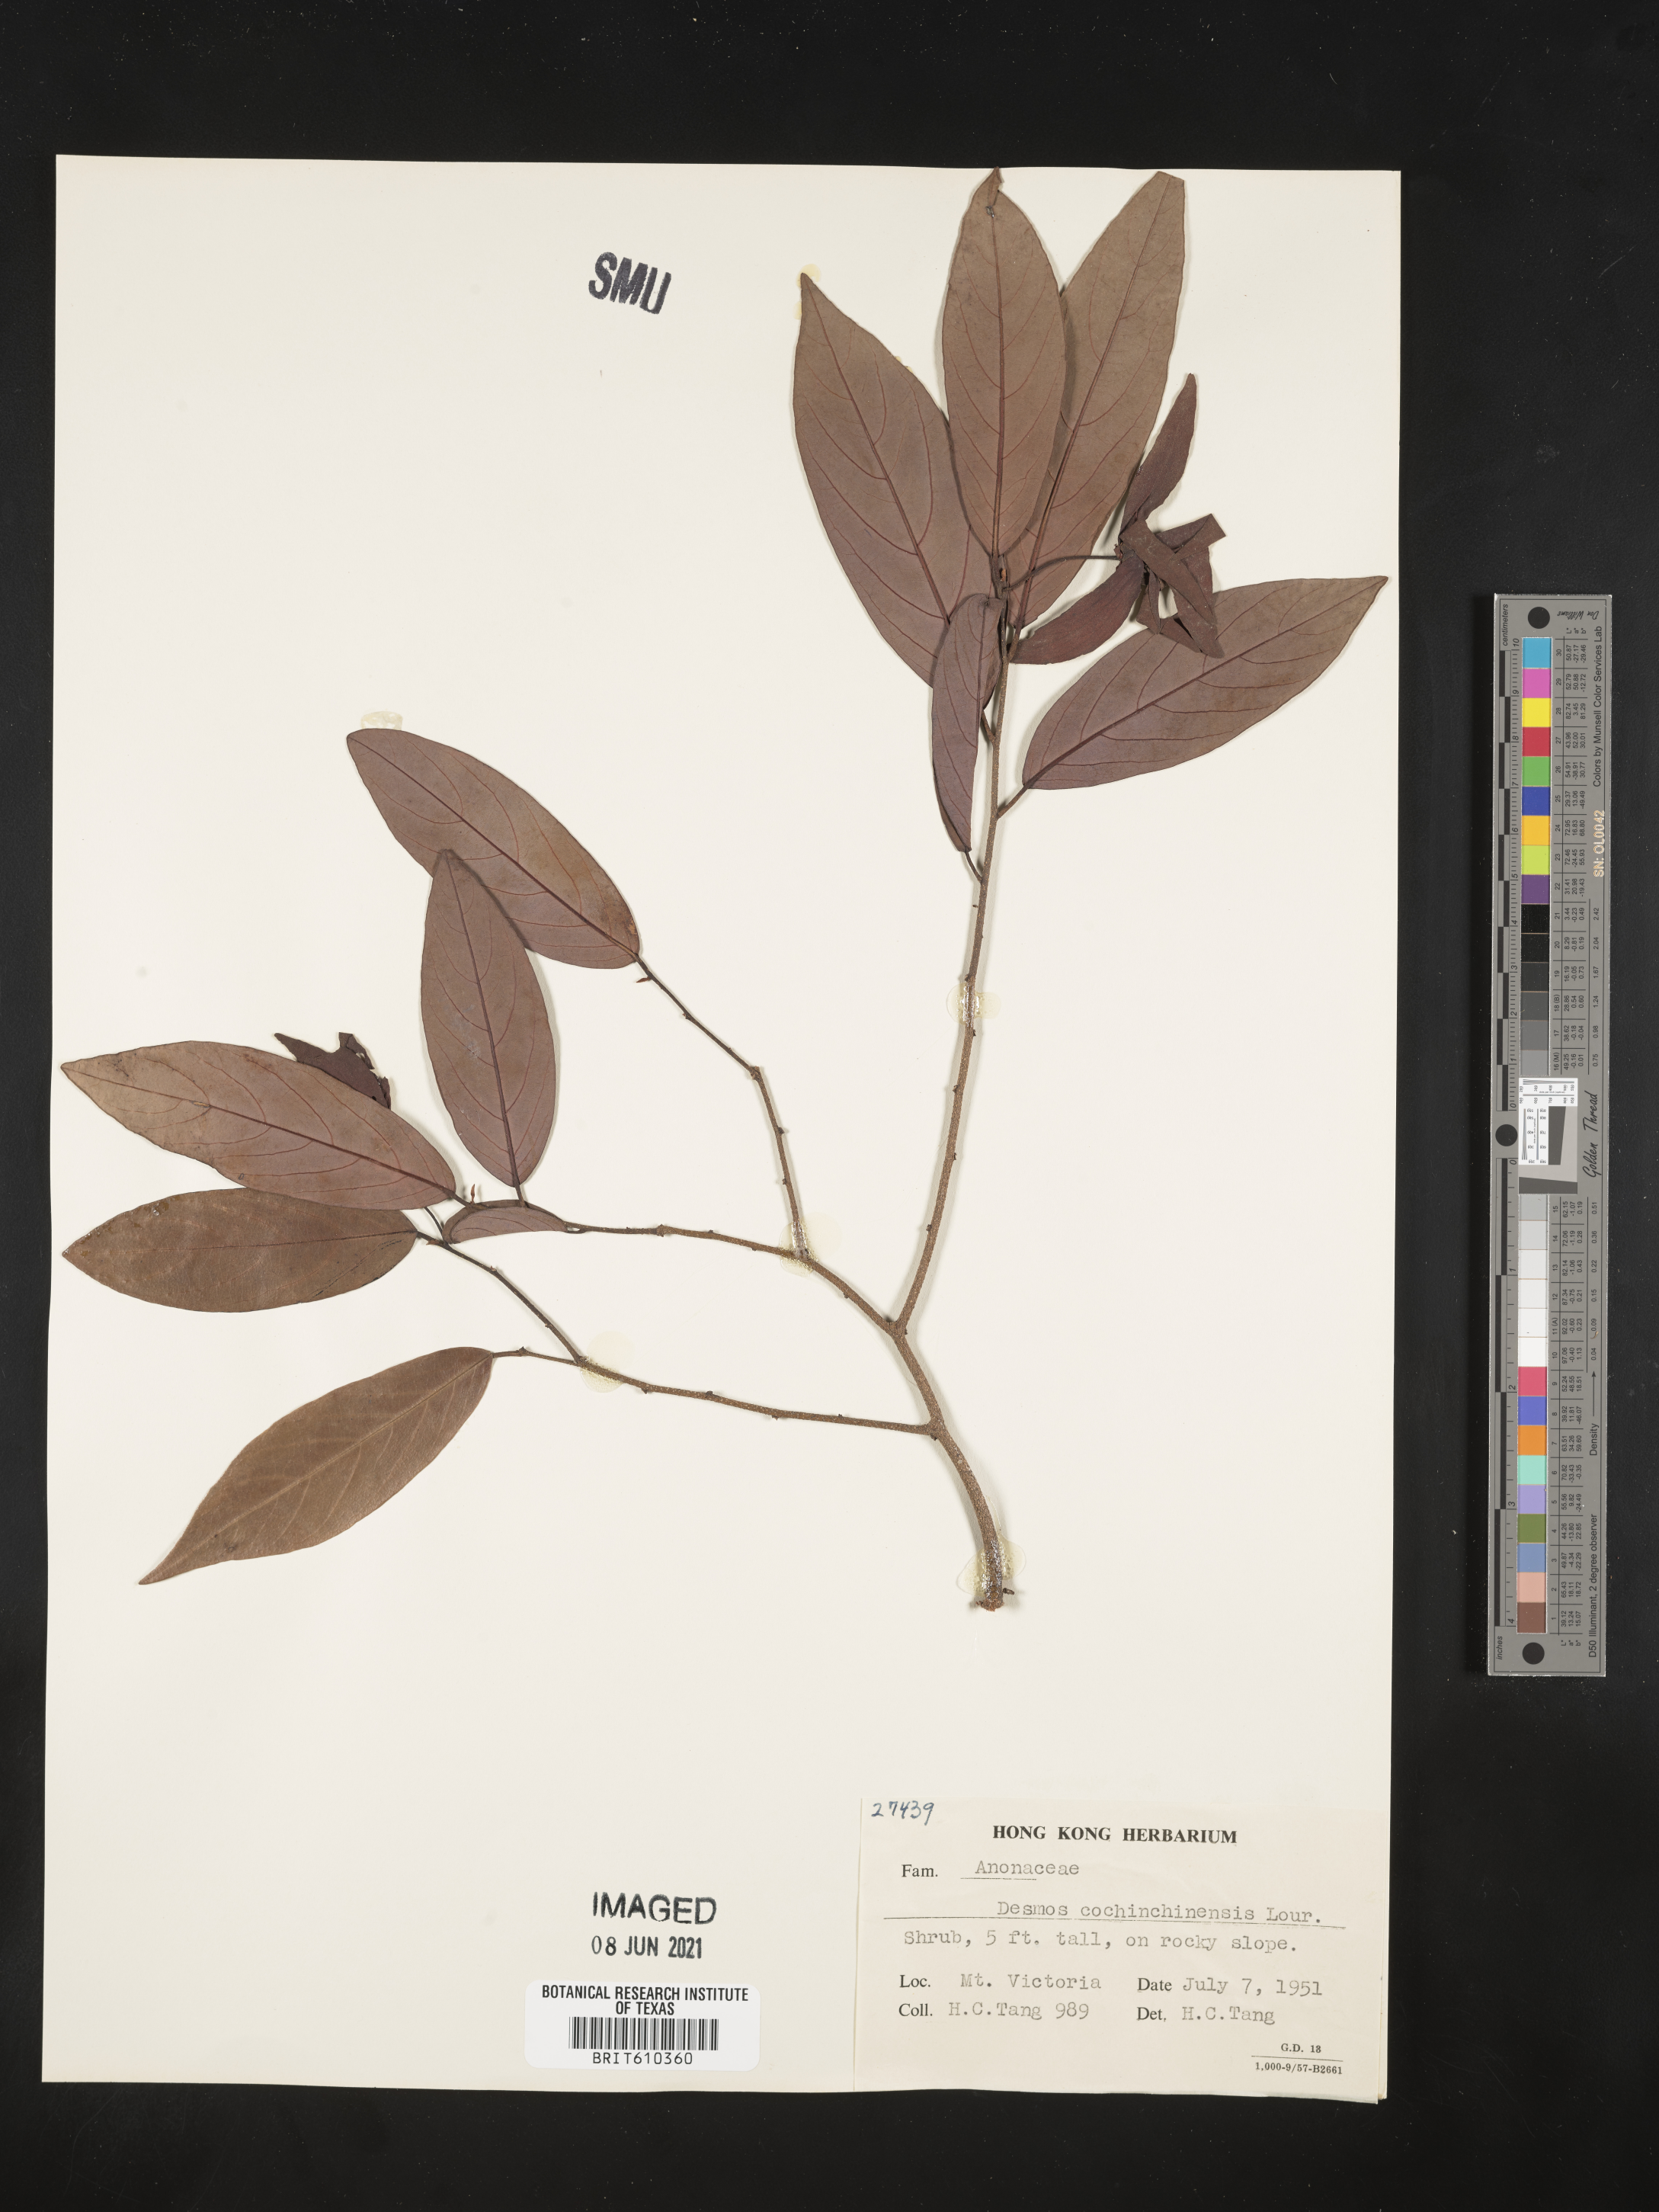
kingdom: Plantae
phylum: Tracheophyta
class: Magnoliopsida
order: Magnoliales
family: Annonaceae
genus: Desmos
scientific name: Desmos cochinchinensis
